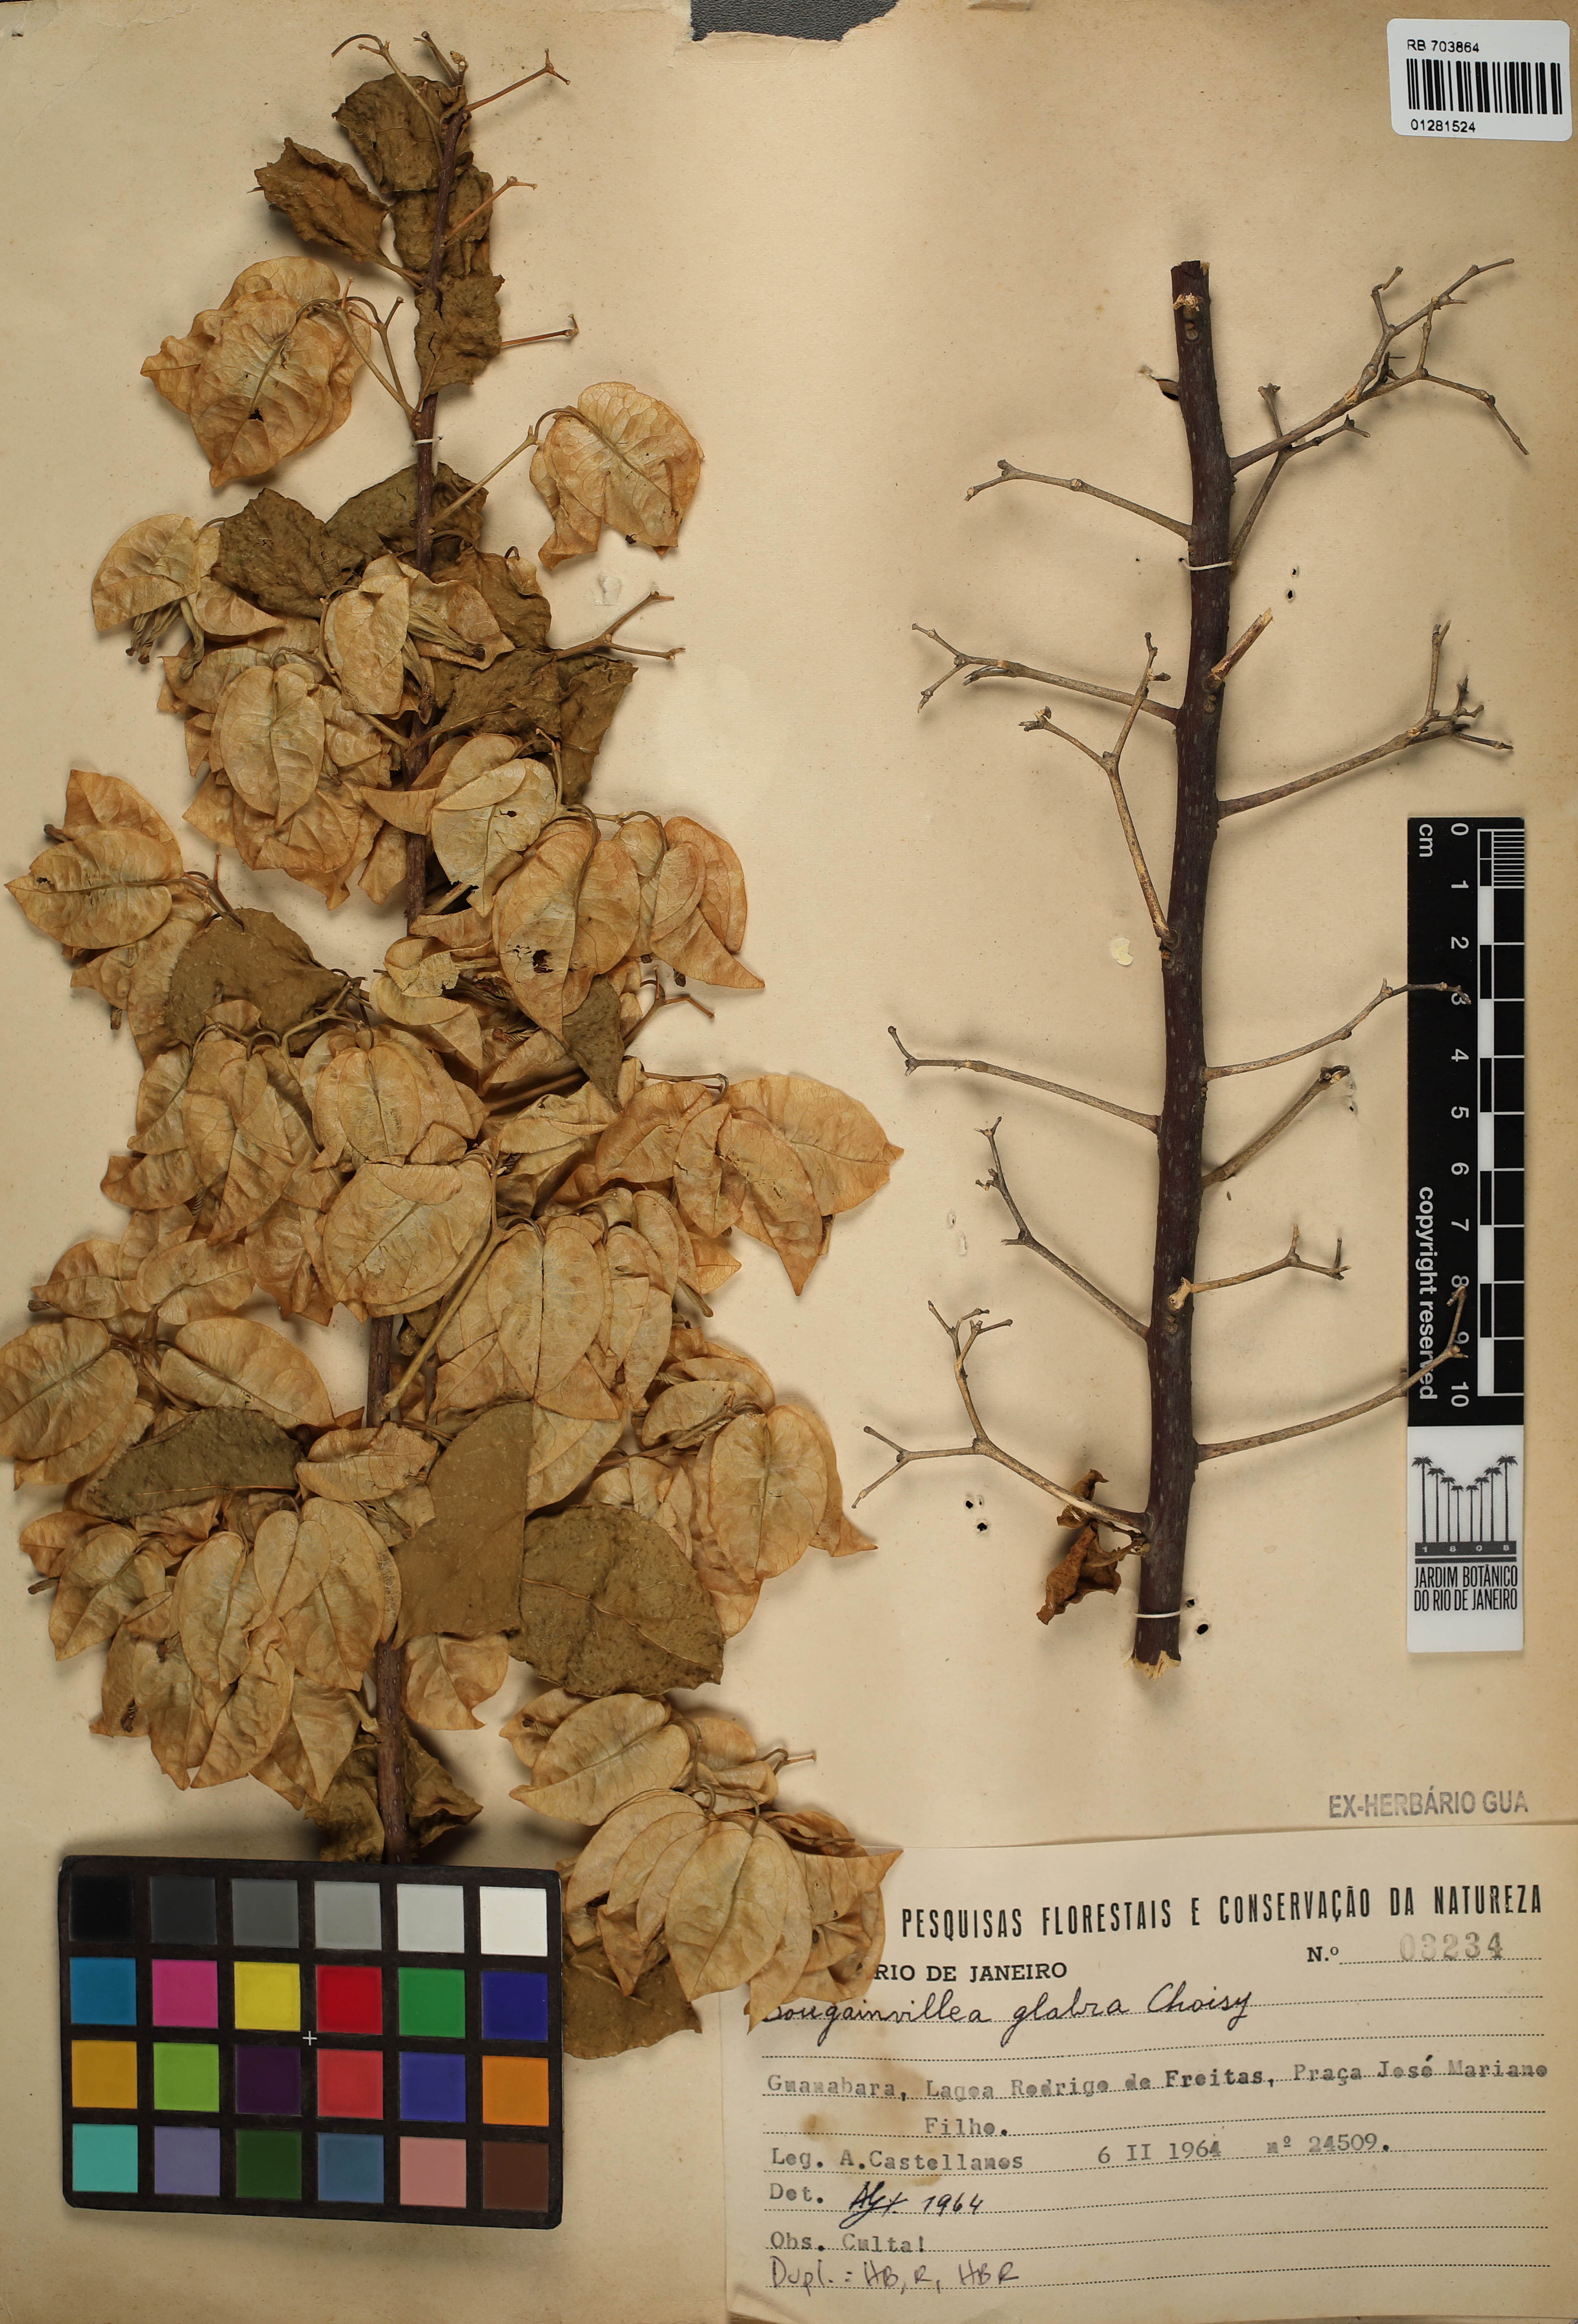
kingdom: Plantae
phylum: Tracheophyta
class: Magnoliopsida
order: Caryophyllales
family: Nyctaginaceae
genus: Bougainvillea
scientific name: Bougainvillea glabra
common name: Paperflower
